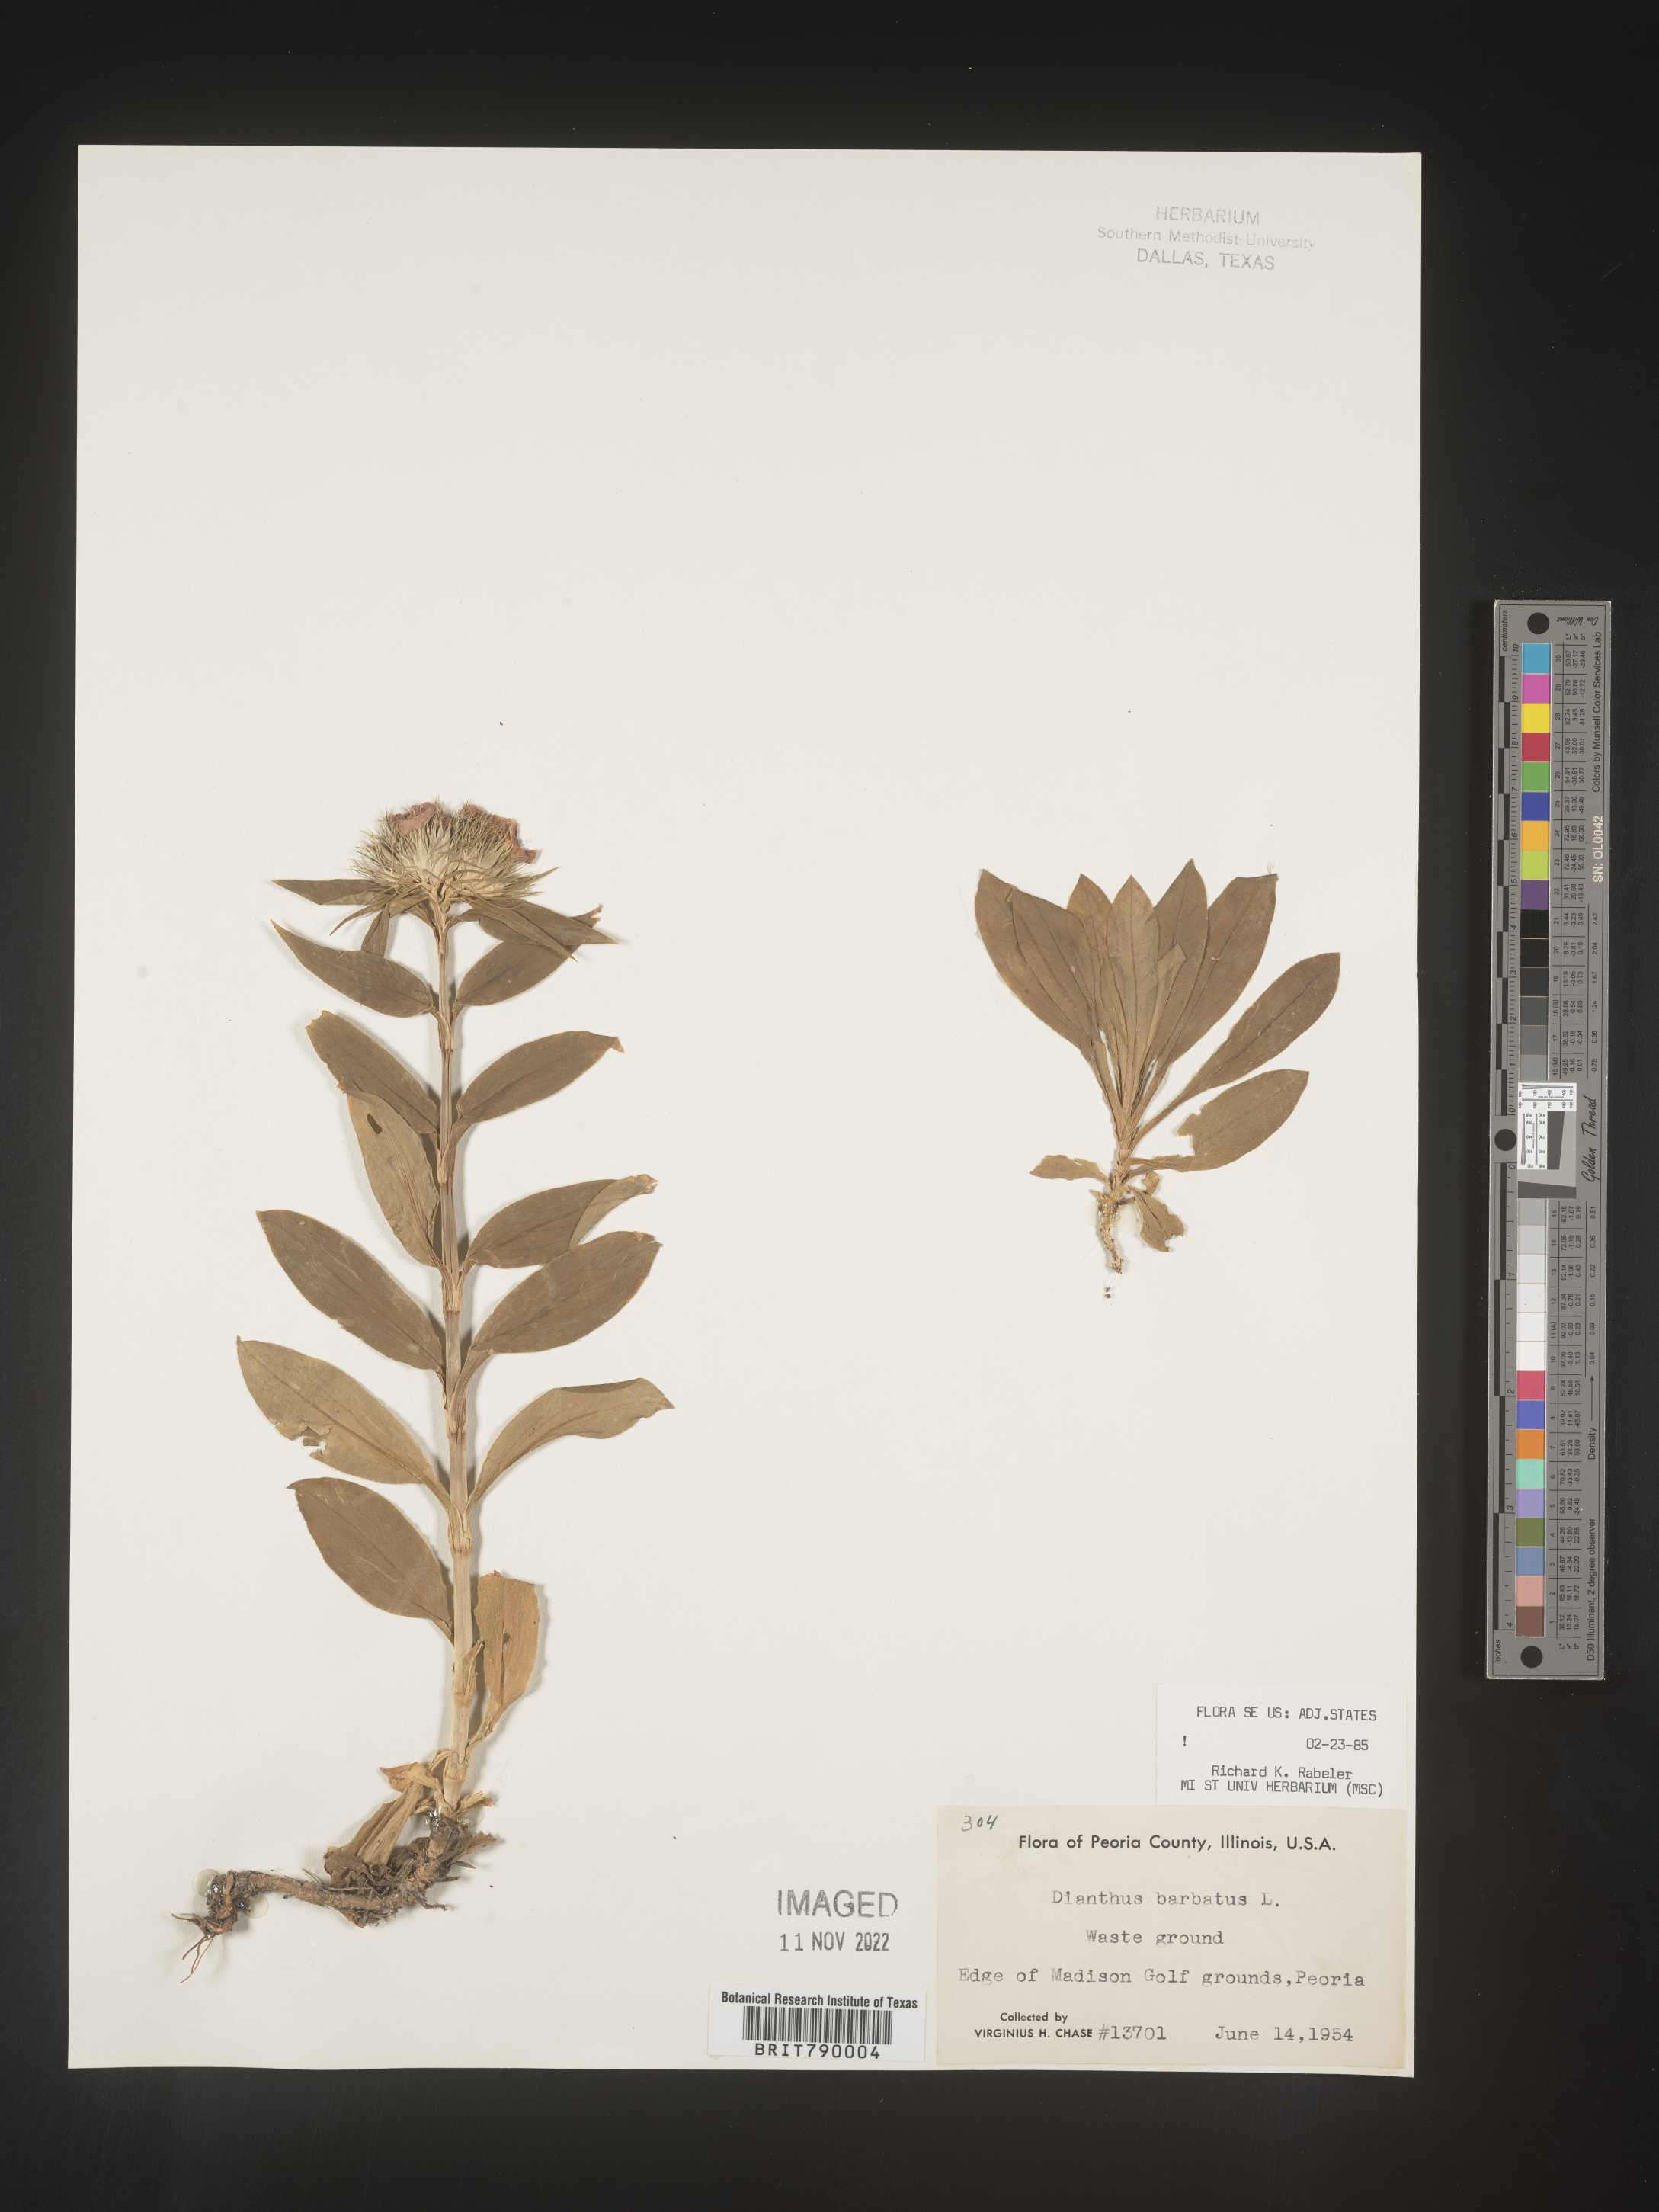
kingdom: Plantae
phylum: Tracheophyta
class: Magnoliopsida
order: Caryophyllales
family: Caryophyllaceae
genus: Dianthus
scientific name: Dianthus
